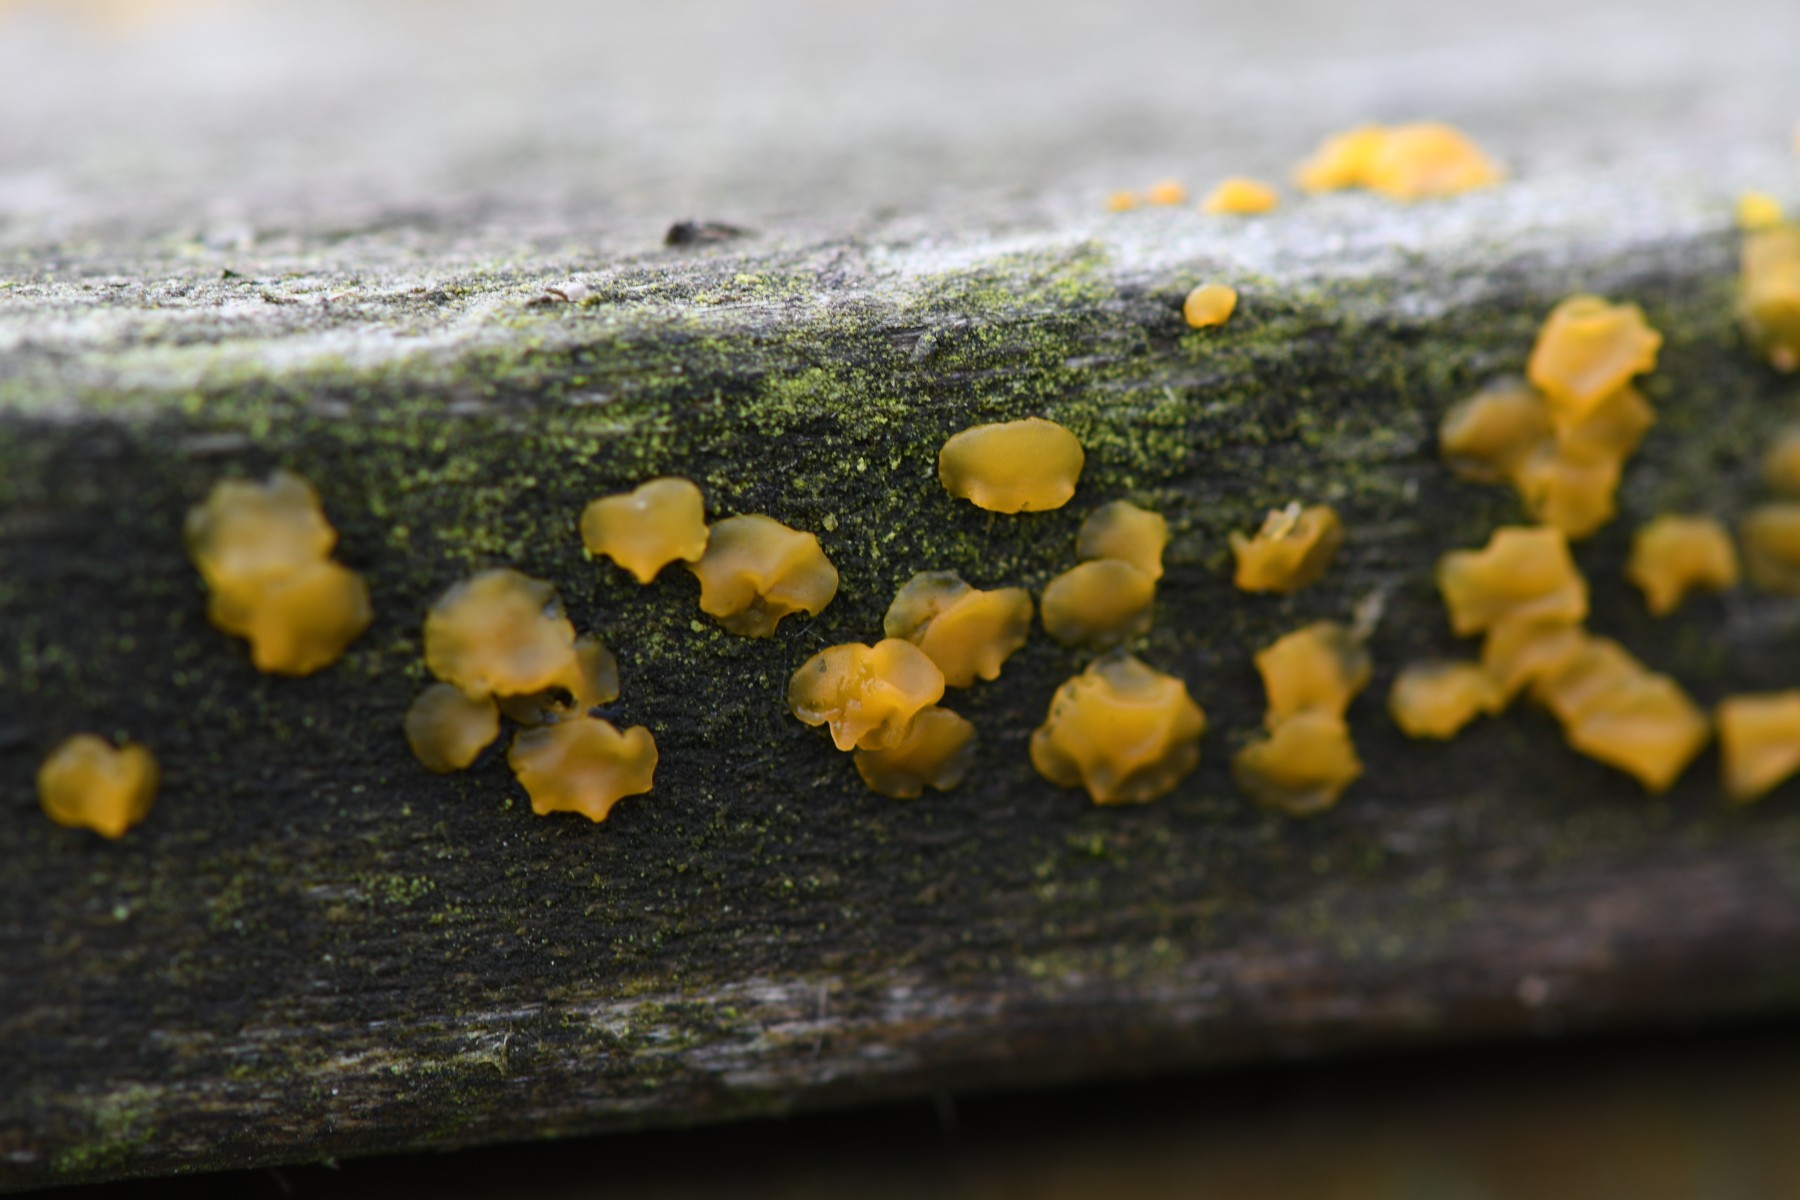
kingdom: Fungi
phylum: Basidiomycota
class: Dacrymycetes
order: Dacrymycetales
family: Dacrymycetaceae
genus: Dacrymyces
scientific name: Dacrymyces lacrymalis
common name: rynket tåresvamp
